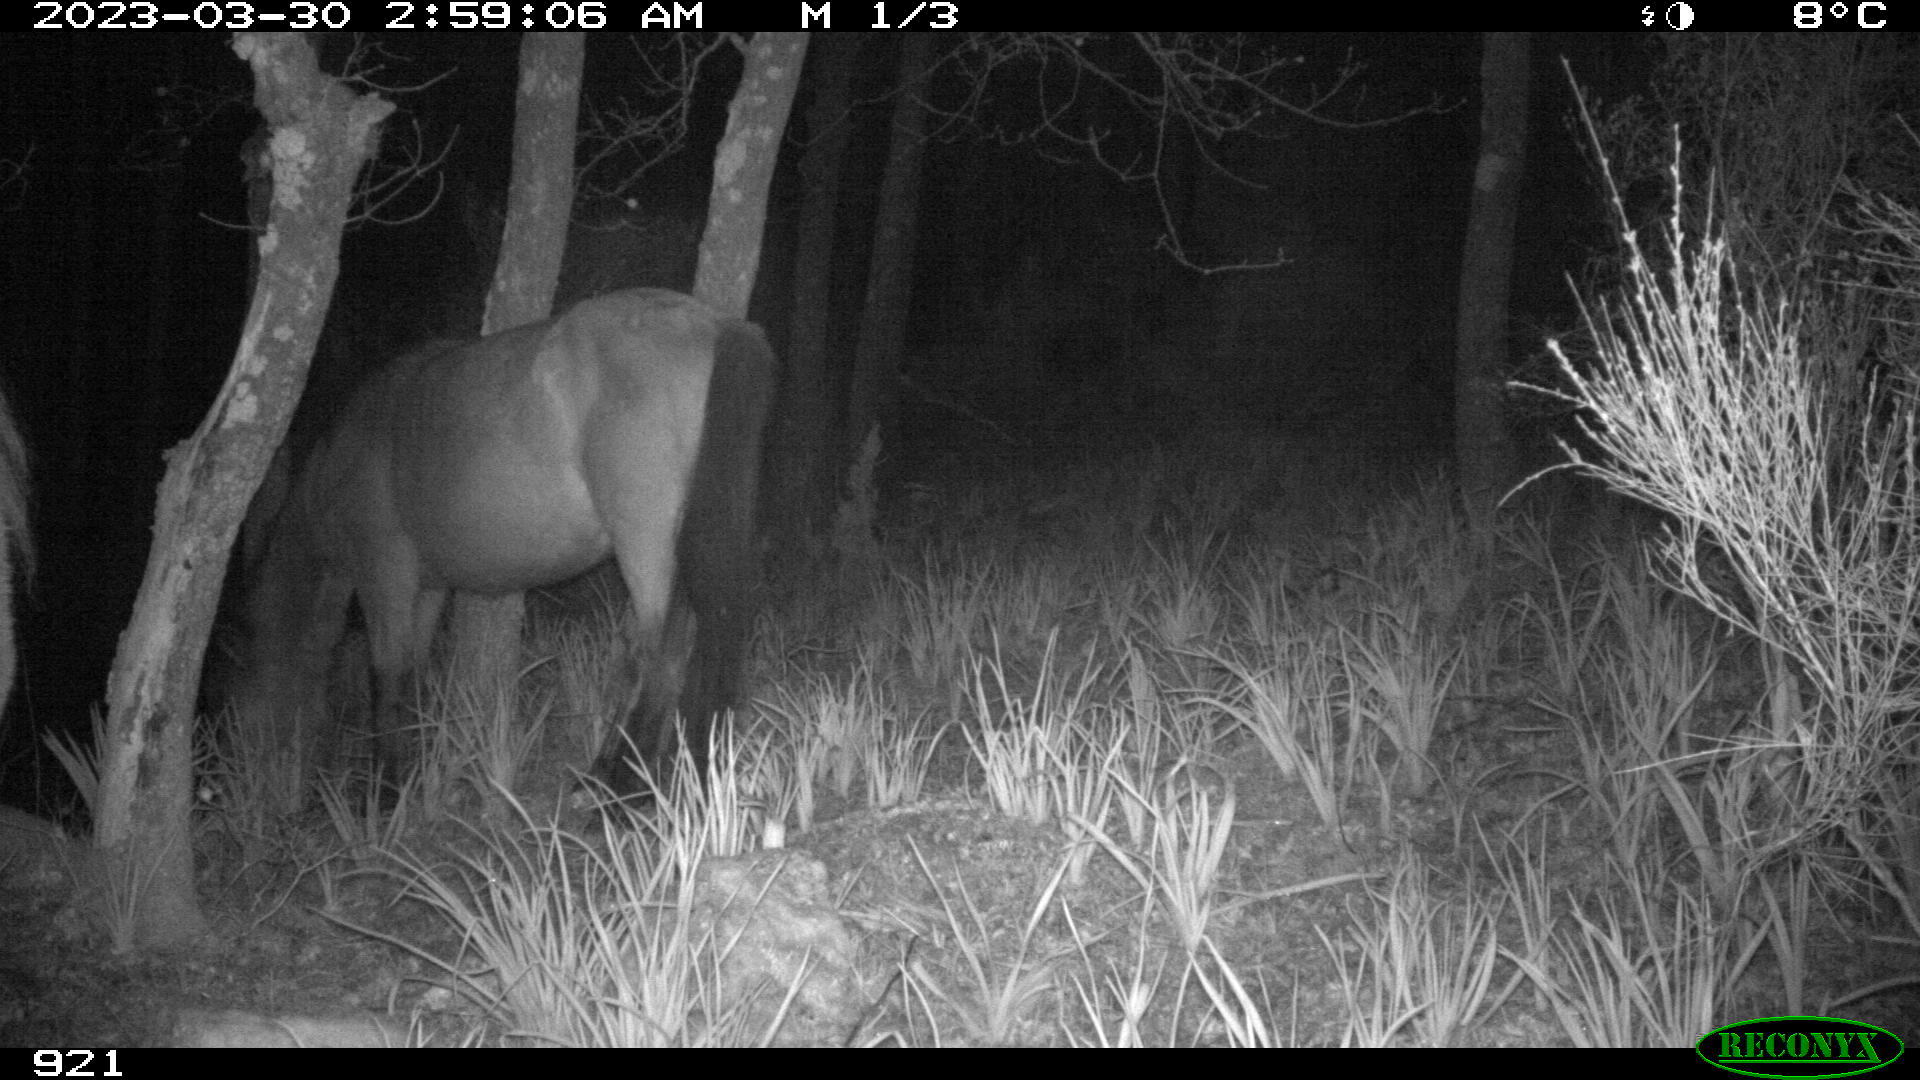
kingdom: Animalia
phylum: Chordata
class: Mammalia
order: Perissodactyla
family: Equidae
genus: Equus
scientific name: Equus caballus
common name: Horse
